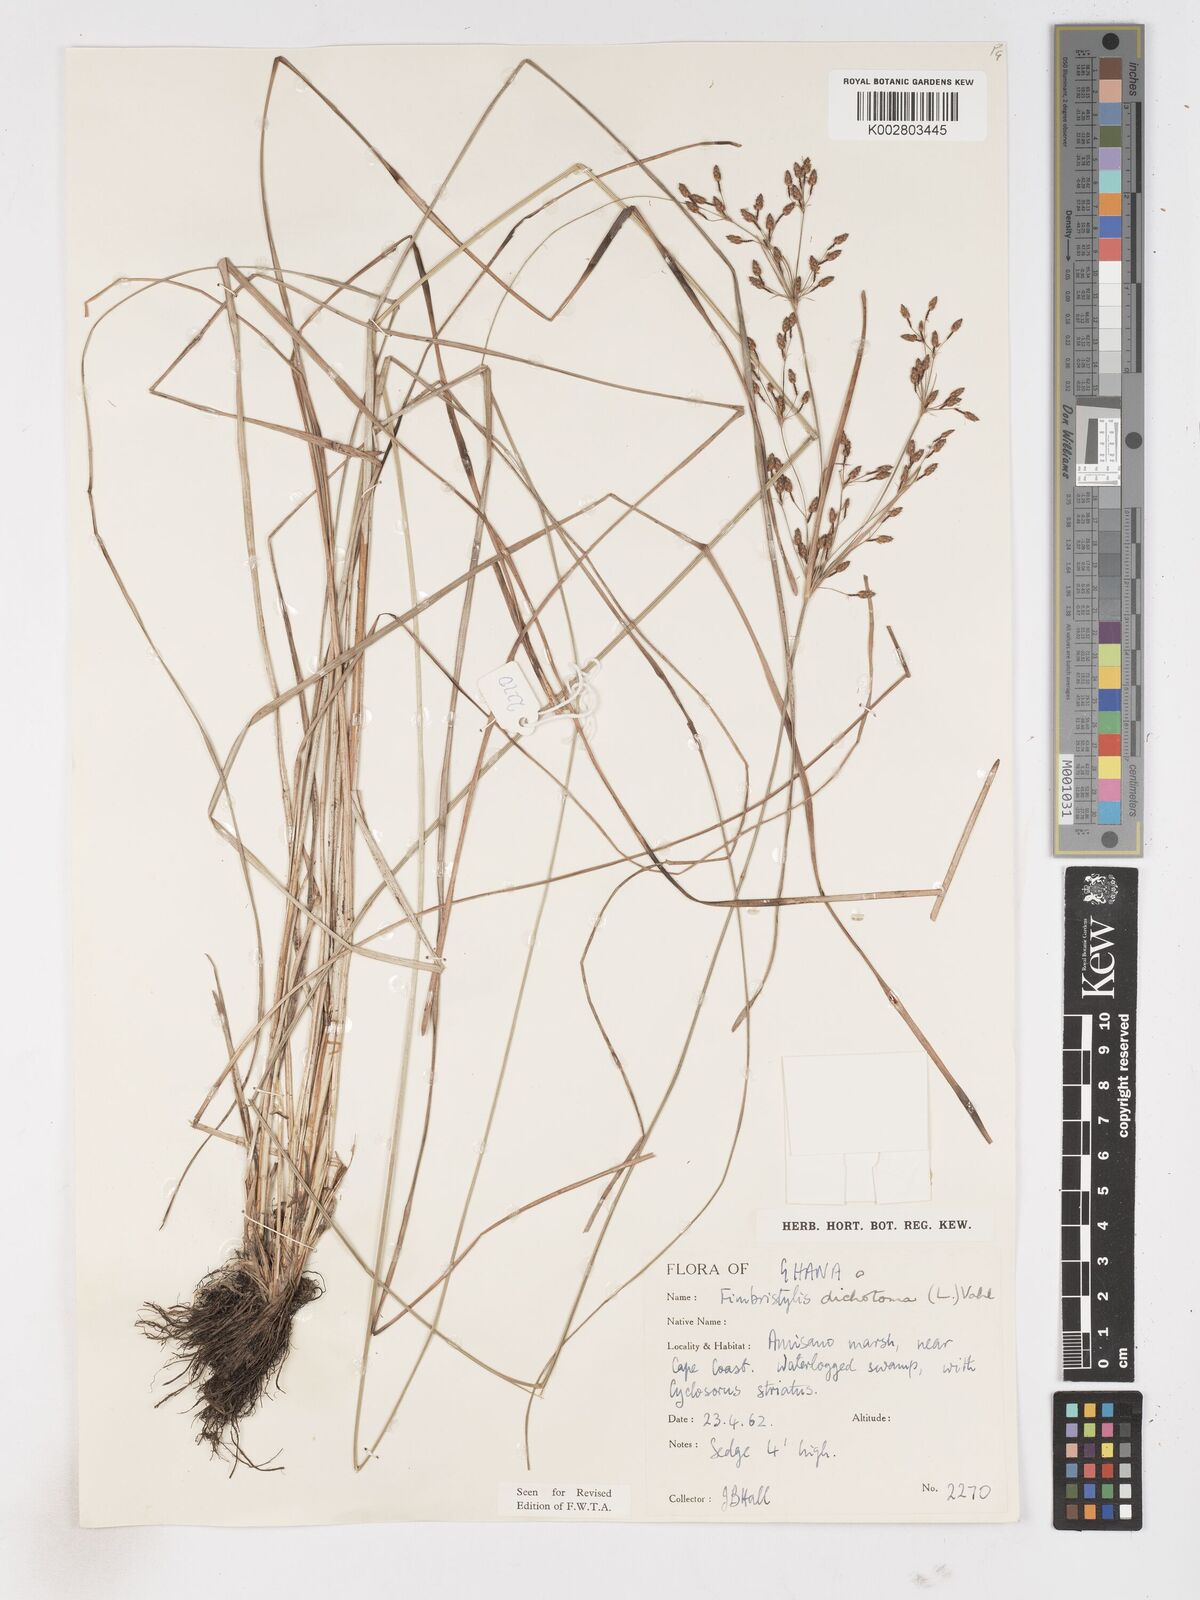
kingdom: Plantae
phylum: Tracheophyta
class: Liliopsida
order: Poales
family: Cyperaceae
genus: Fimbristylis
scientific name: Fimbristylis dichotoma
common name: Forked fimbry
